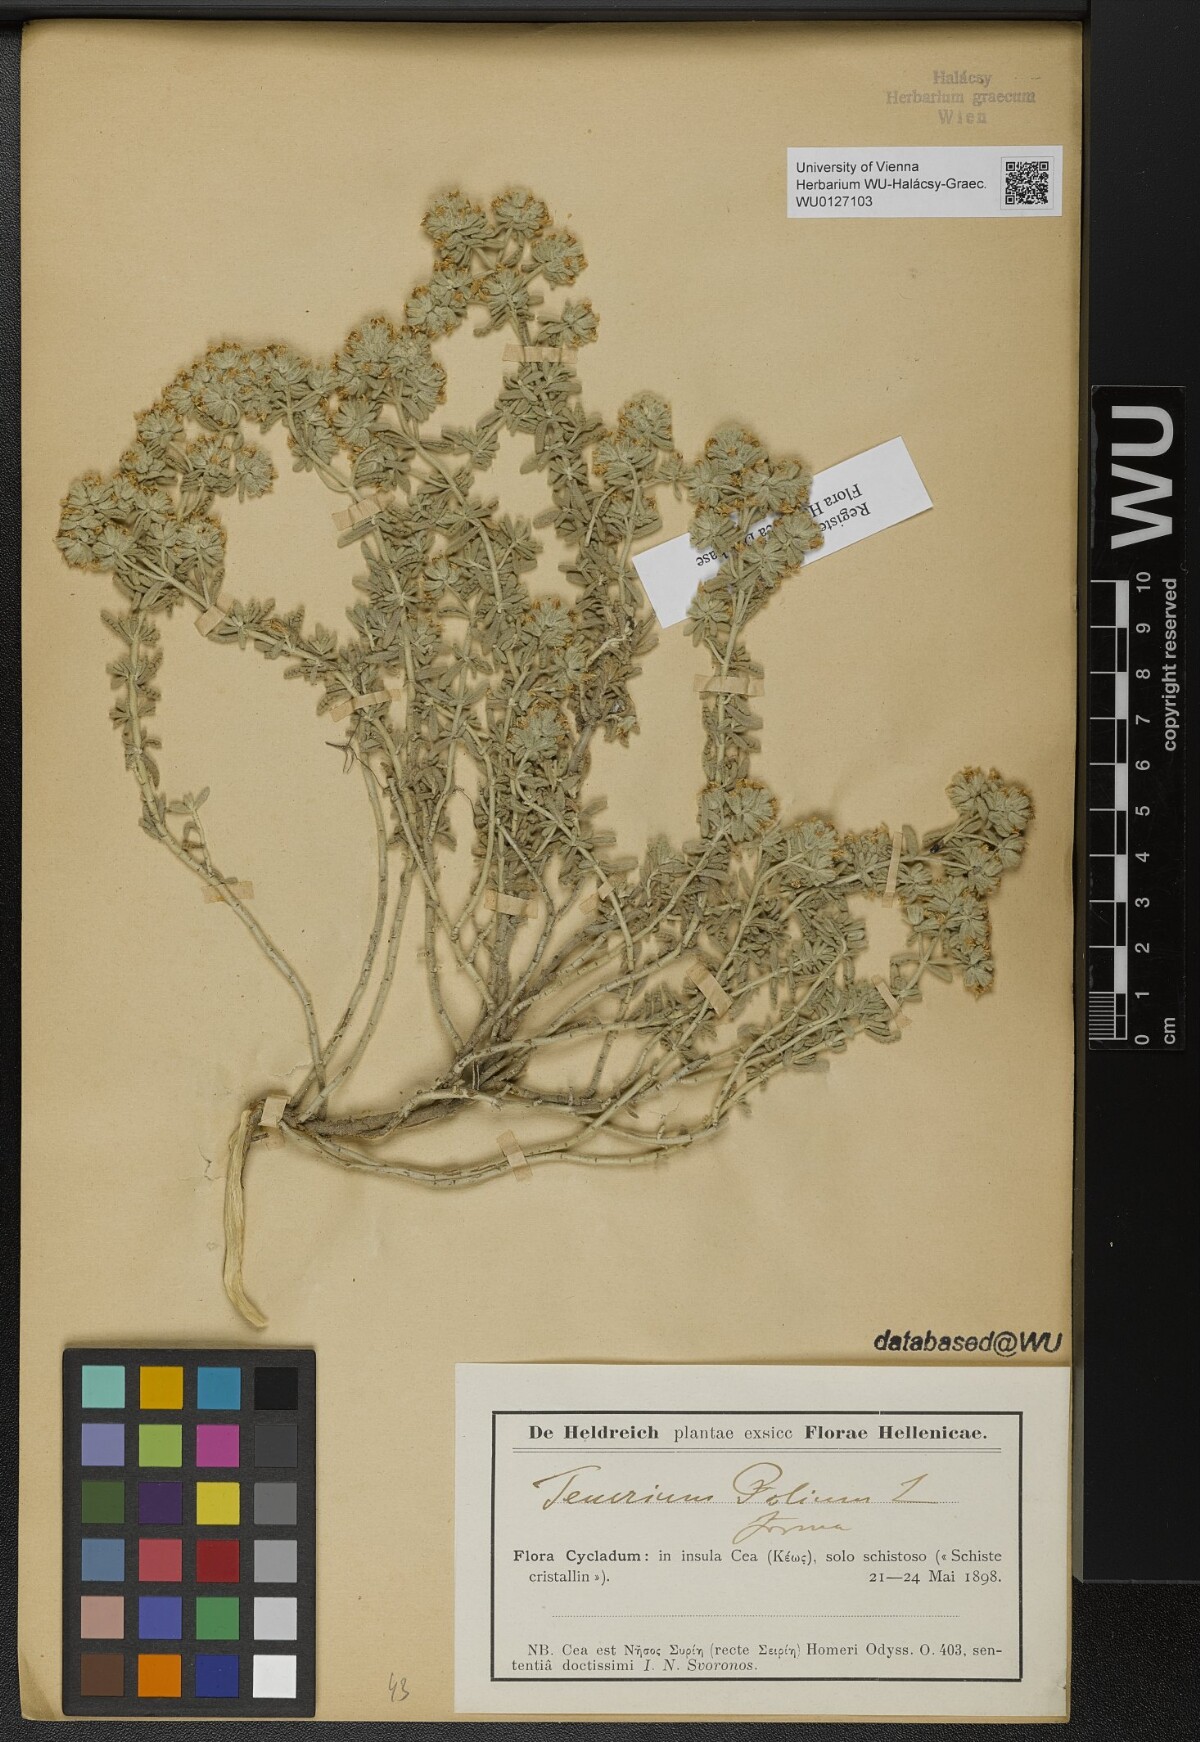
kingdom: Plantae
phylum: Tracheophyta
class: Magnoliopsida
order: Lamiales
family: Lamiaceae
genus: Teucrium
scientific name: Teucrium polium
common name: Poley
